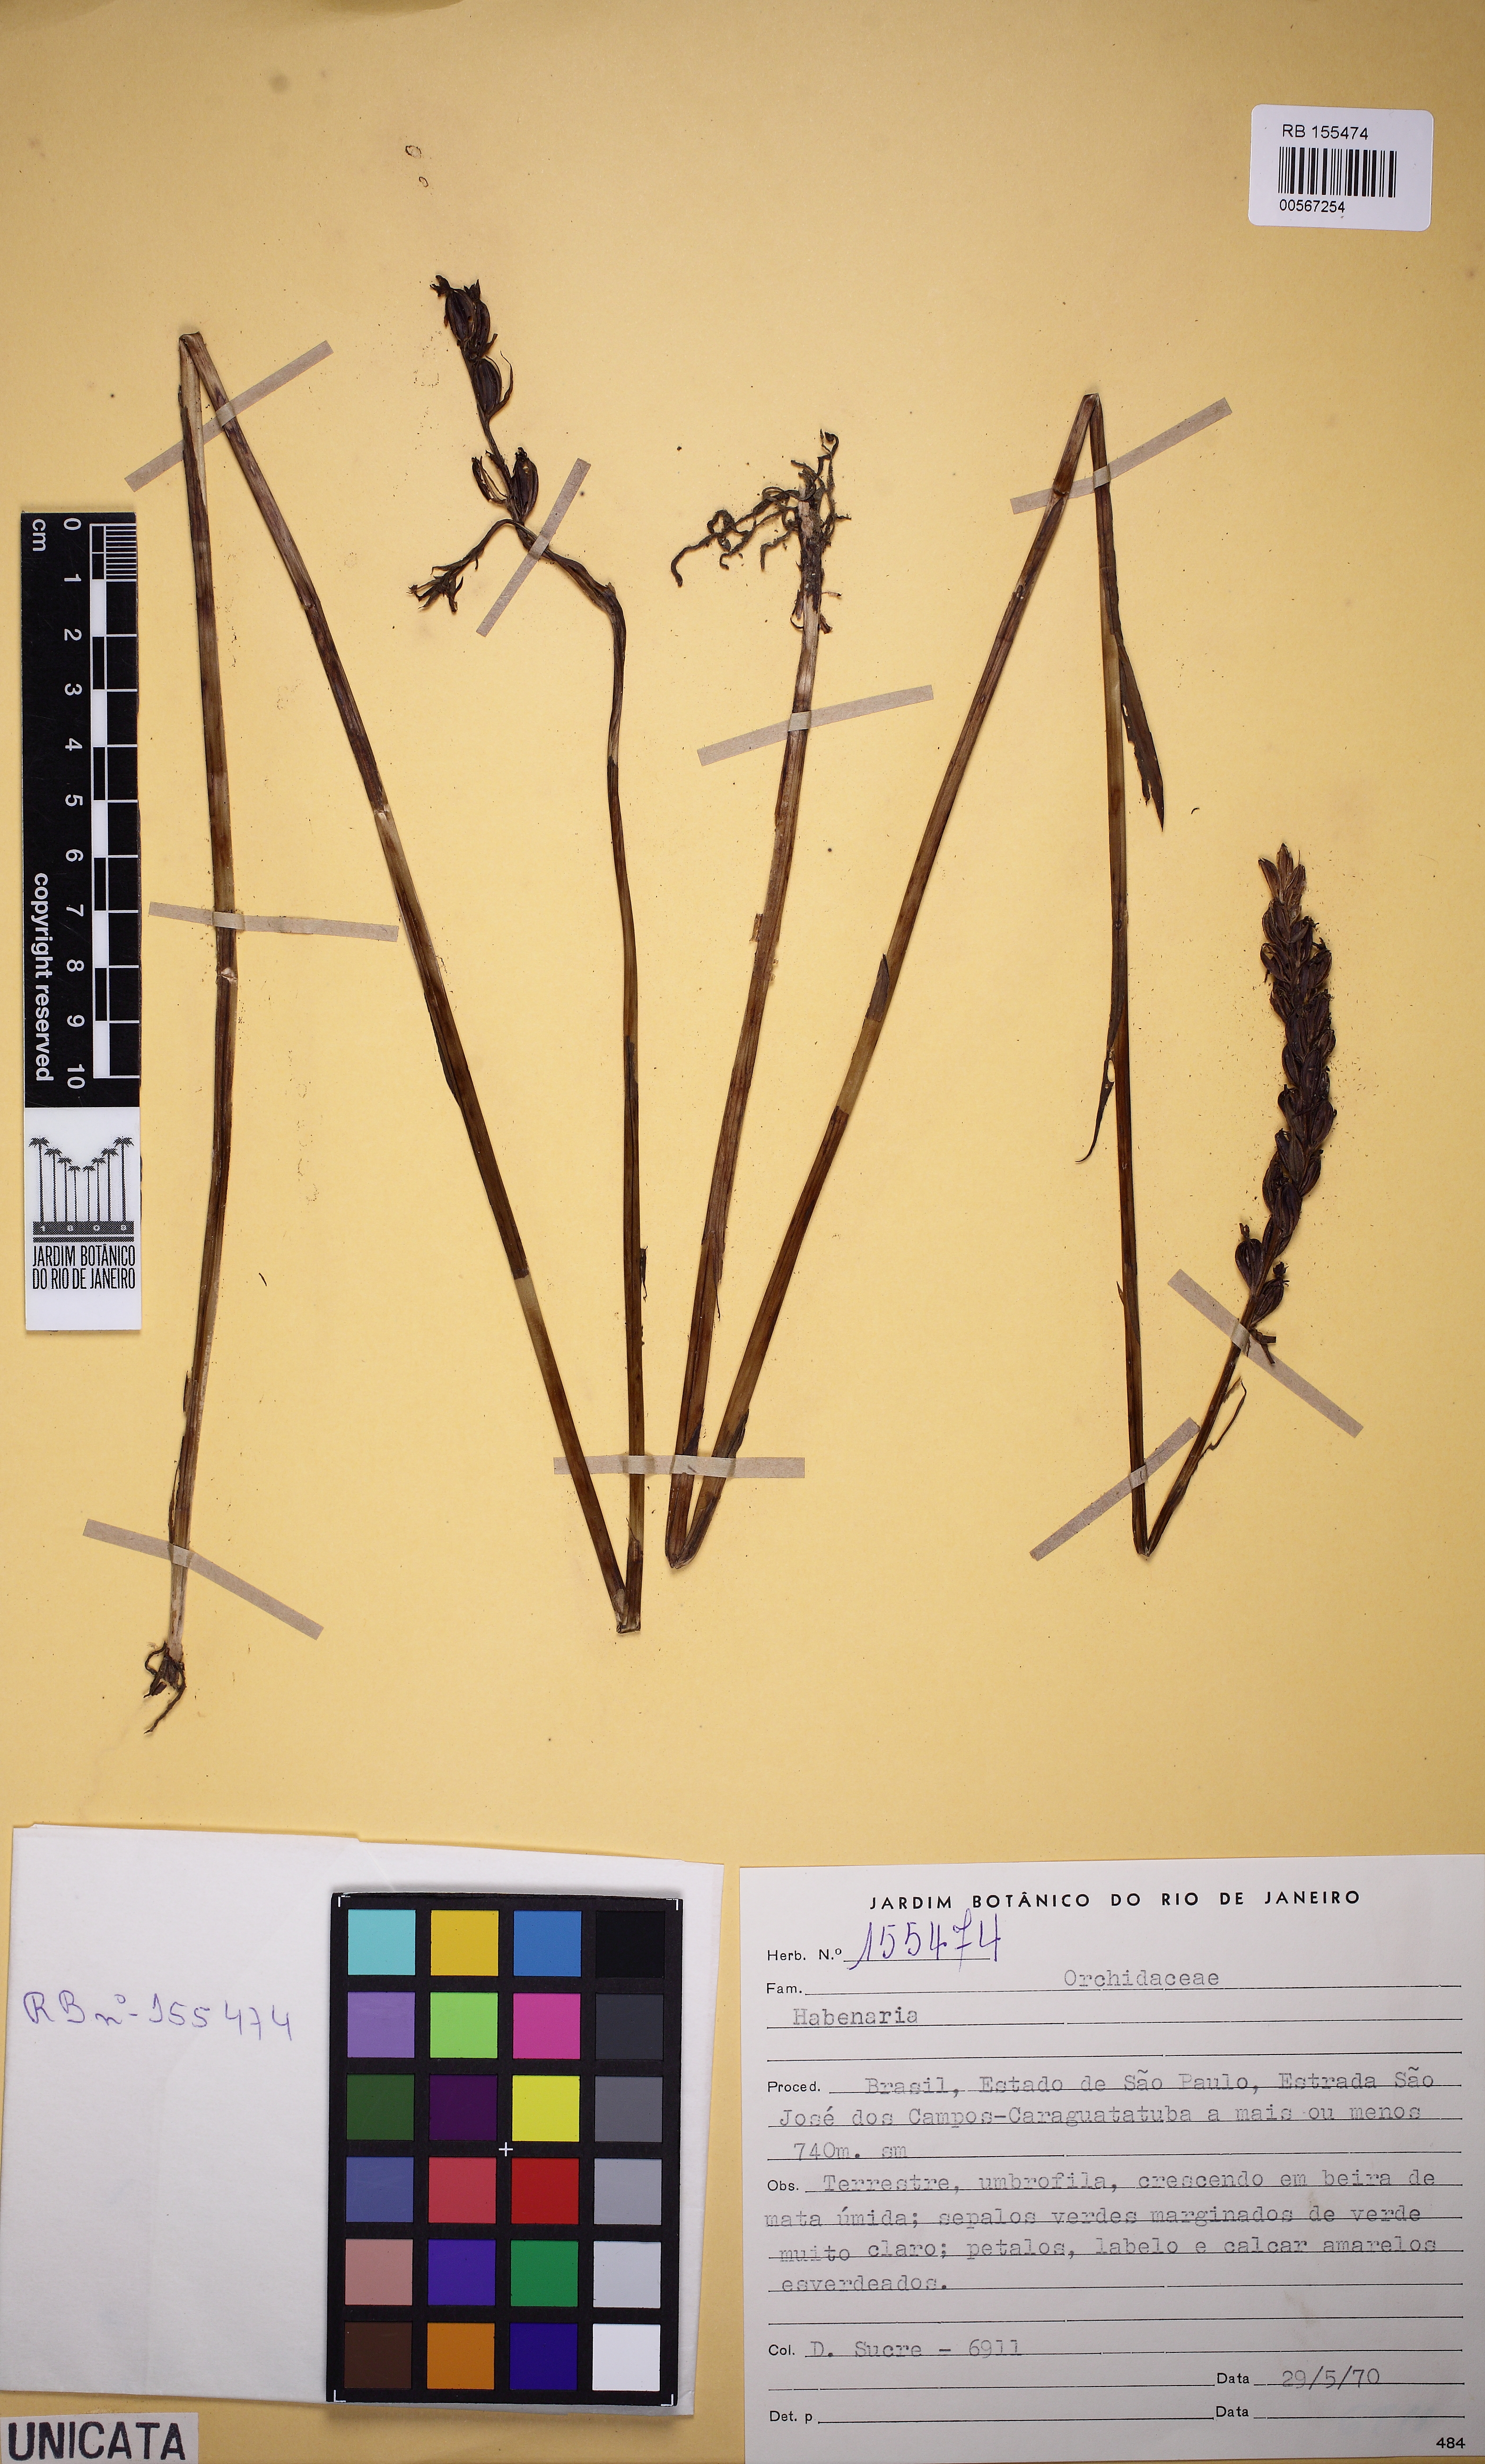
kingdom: Plantae
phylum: Tracheophyta
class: Liliopsida
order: Asparagales
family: Orchidaceae
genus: Habenaria
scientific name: Habenaria
